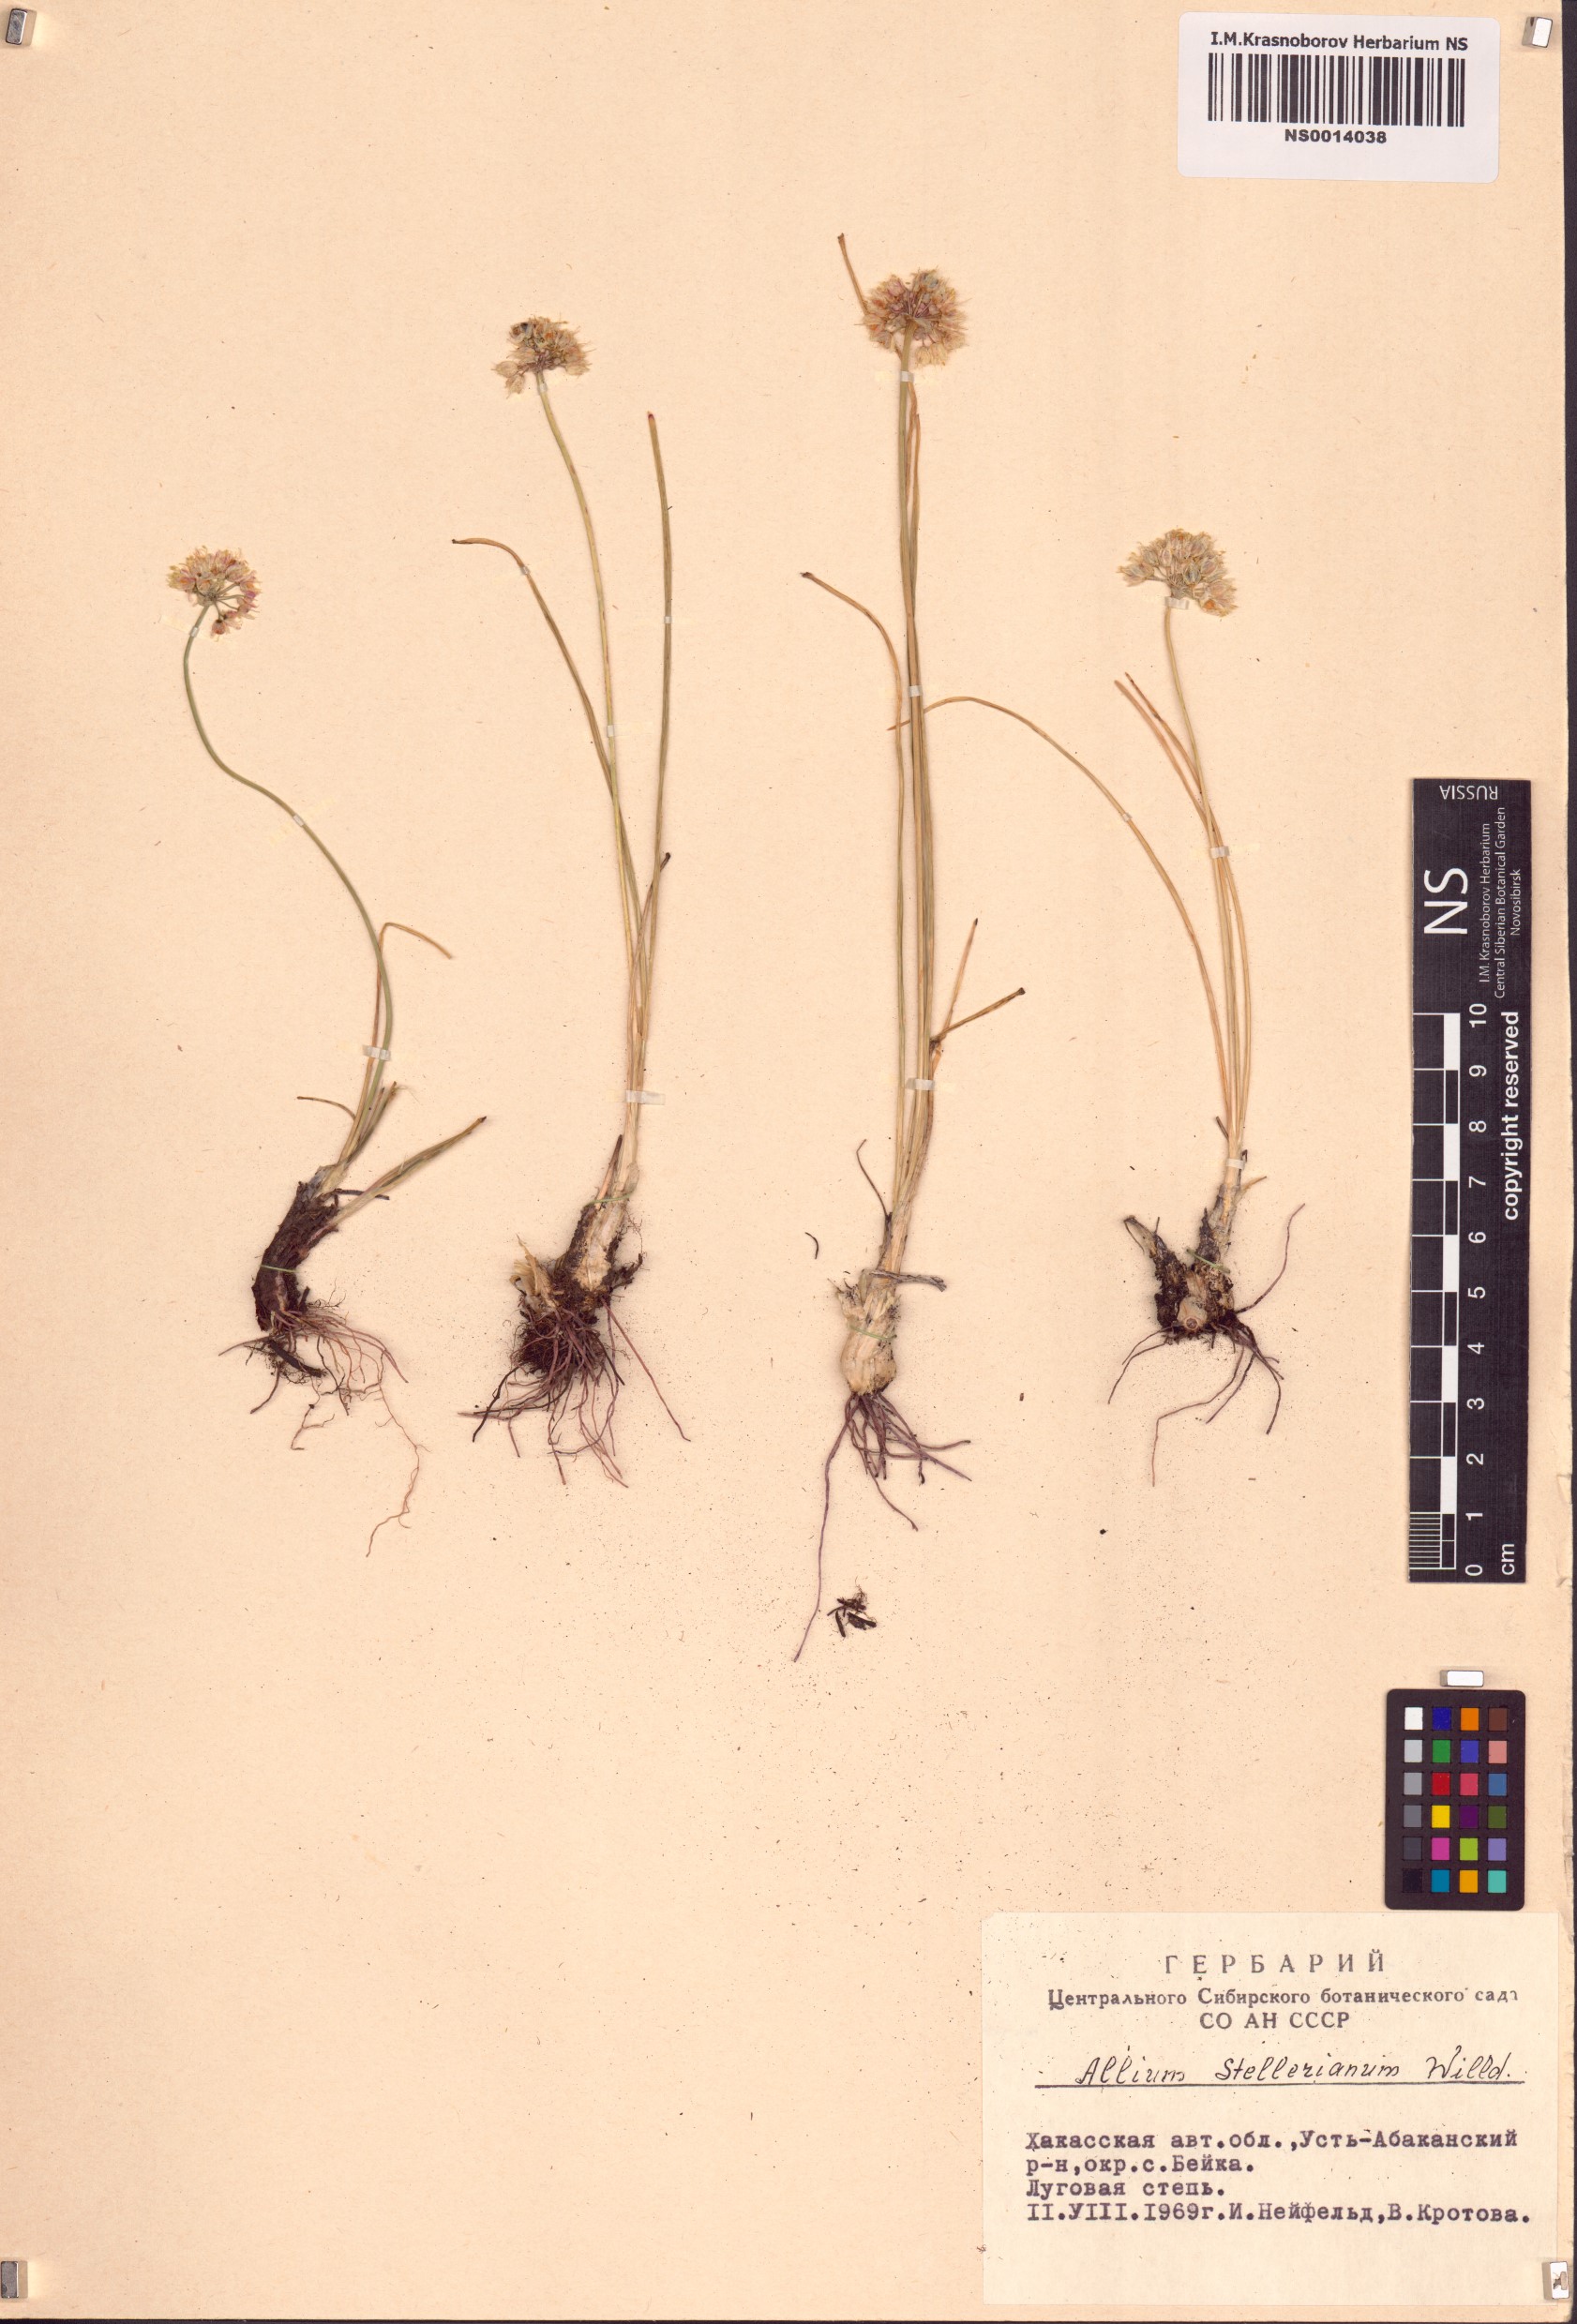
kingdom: Plantae
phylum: Tracheophyta
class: Liliopsida
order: Asparagales
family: Amaryllidaceae
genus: Allium
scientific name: Allium stellerianum
